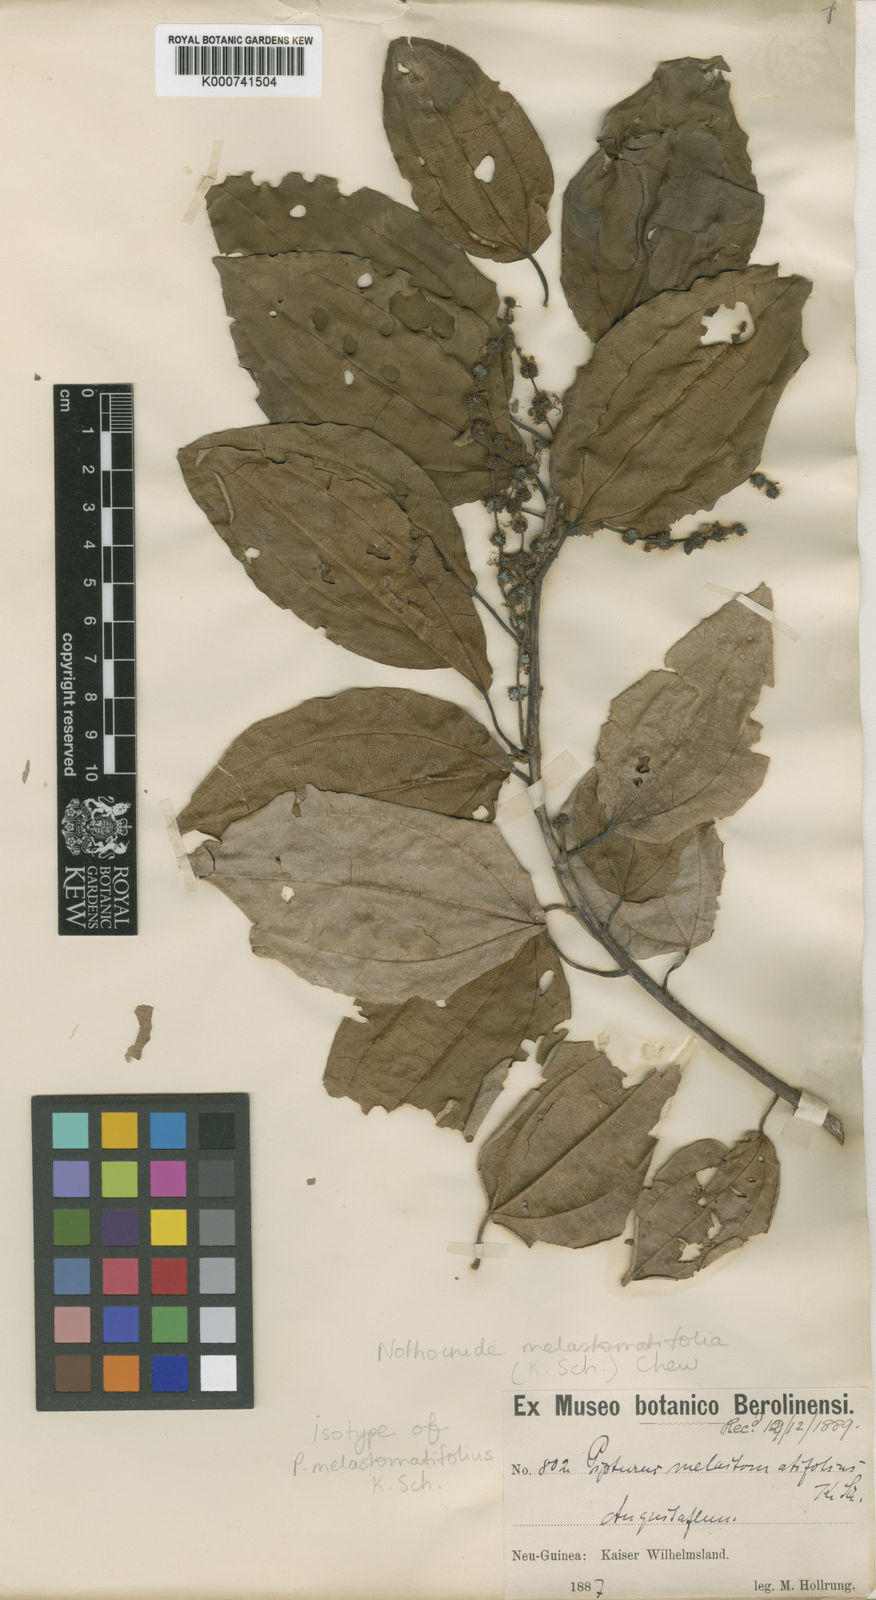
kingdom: Plantae
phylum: Tracheophyta
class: Magnoliopsida
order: Rosales
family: Urticaceae
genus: Nothocnide
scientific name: Nothocnide melastomatifolia
